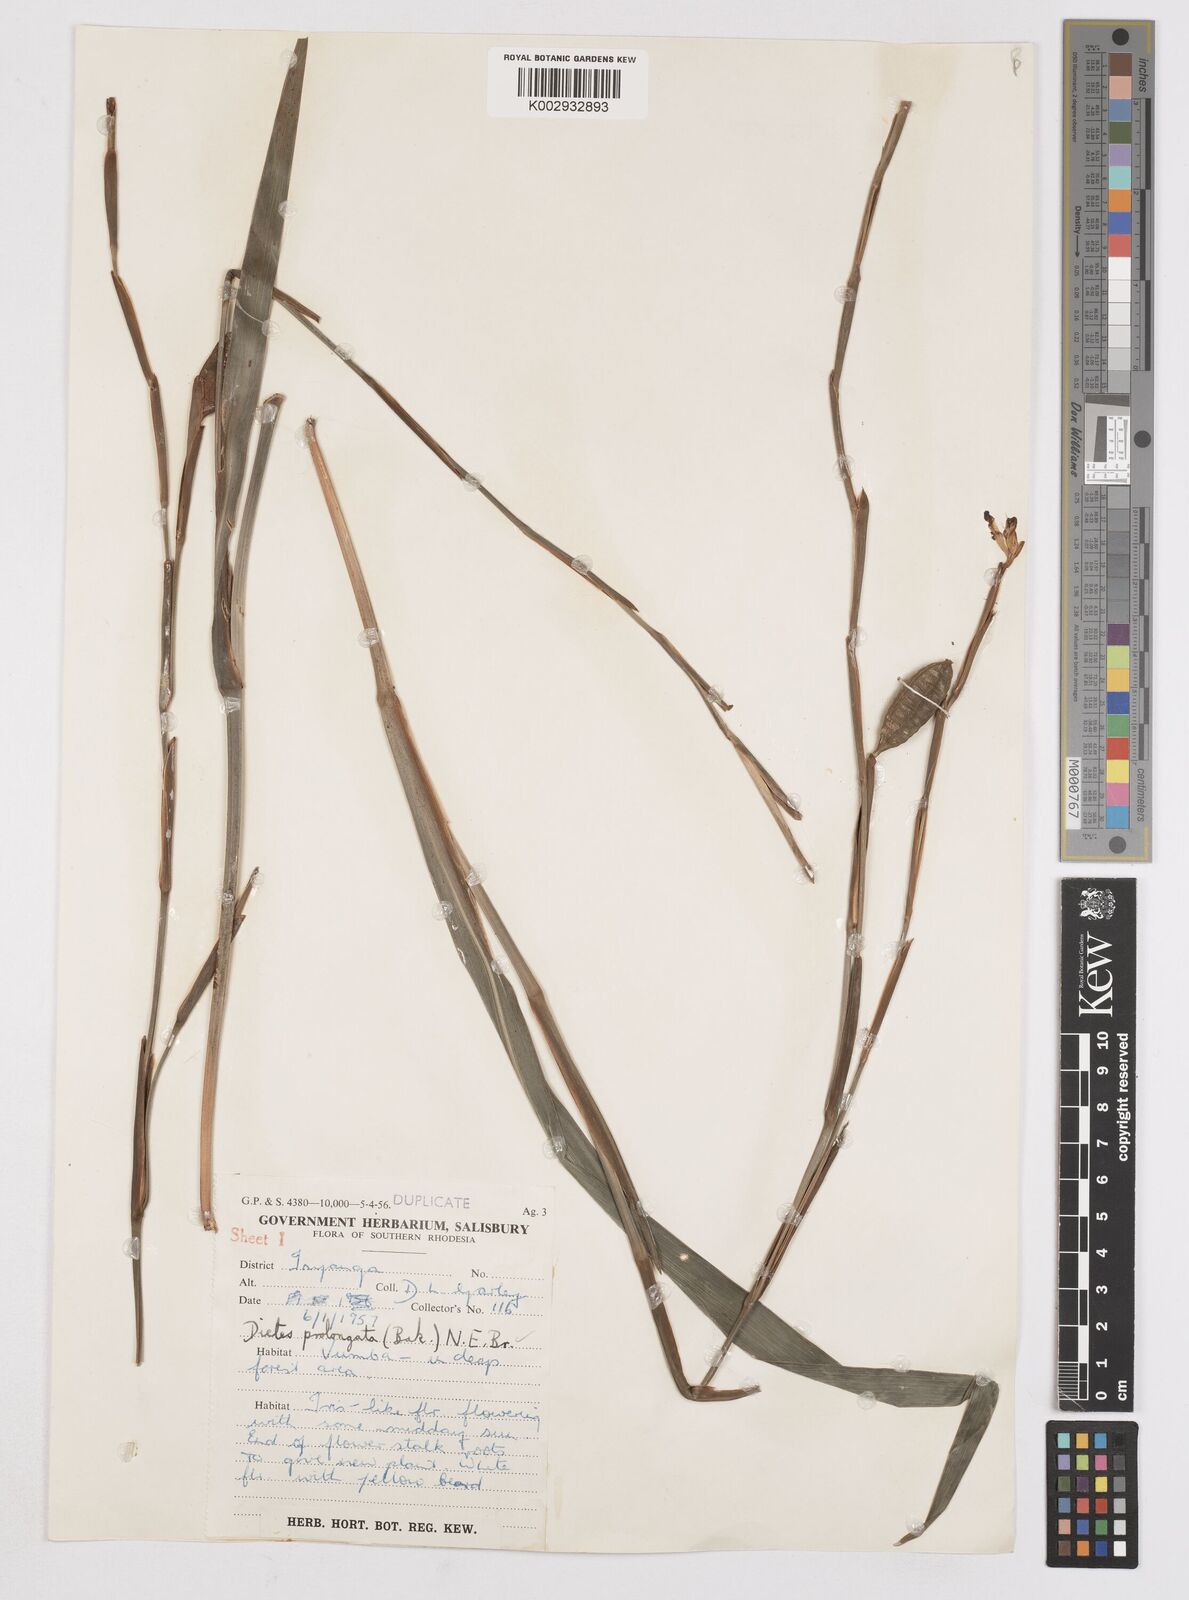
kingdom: Plantae
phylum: Tracheophyta
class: Liliopsida
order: Asparagales
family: Iridaceae
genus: Dietes
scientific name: Dietes iridioides
